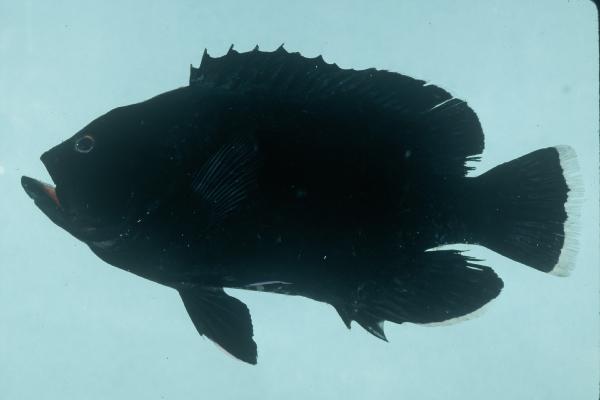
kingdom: Animalia
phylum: Chordata
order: Perciformes
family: Serranidae
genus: Aethaloperca
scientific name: Aethaloperca rogaa
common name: Redmouth grouper
